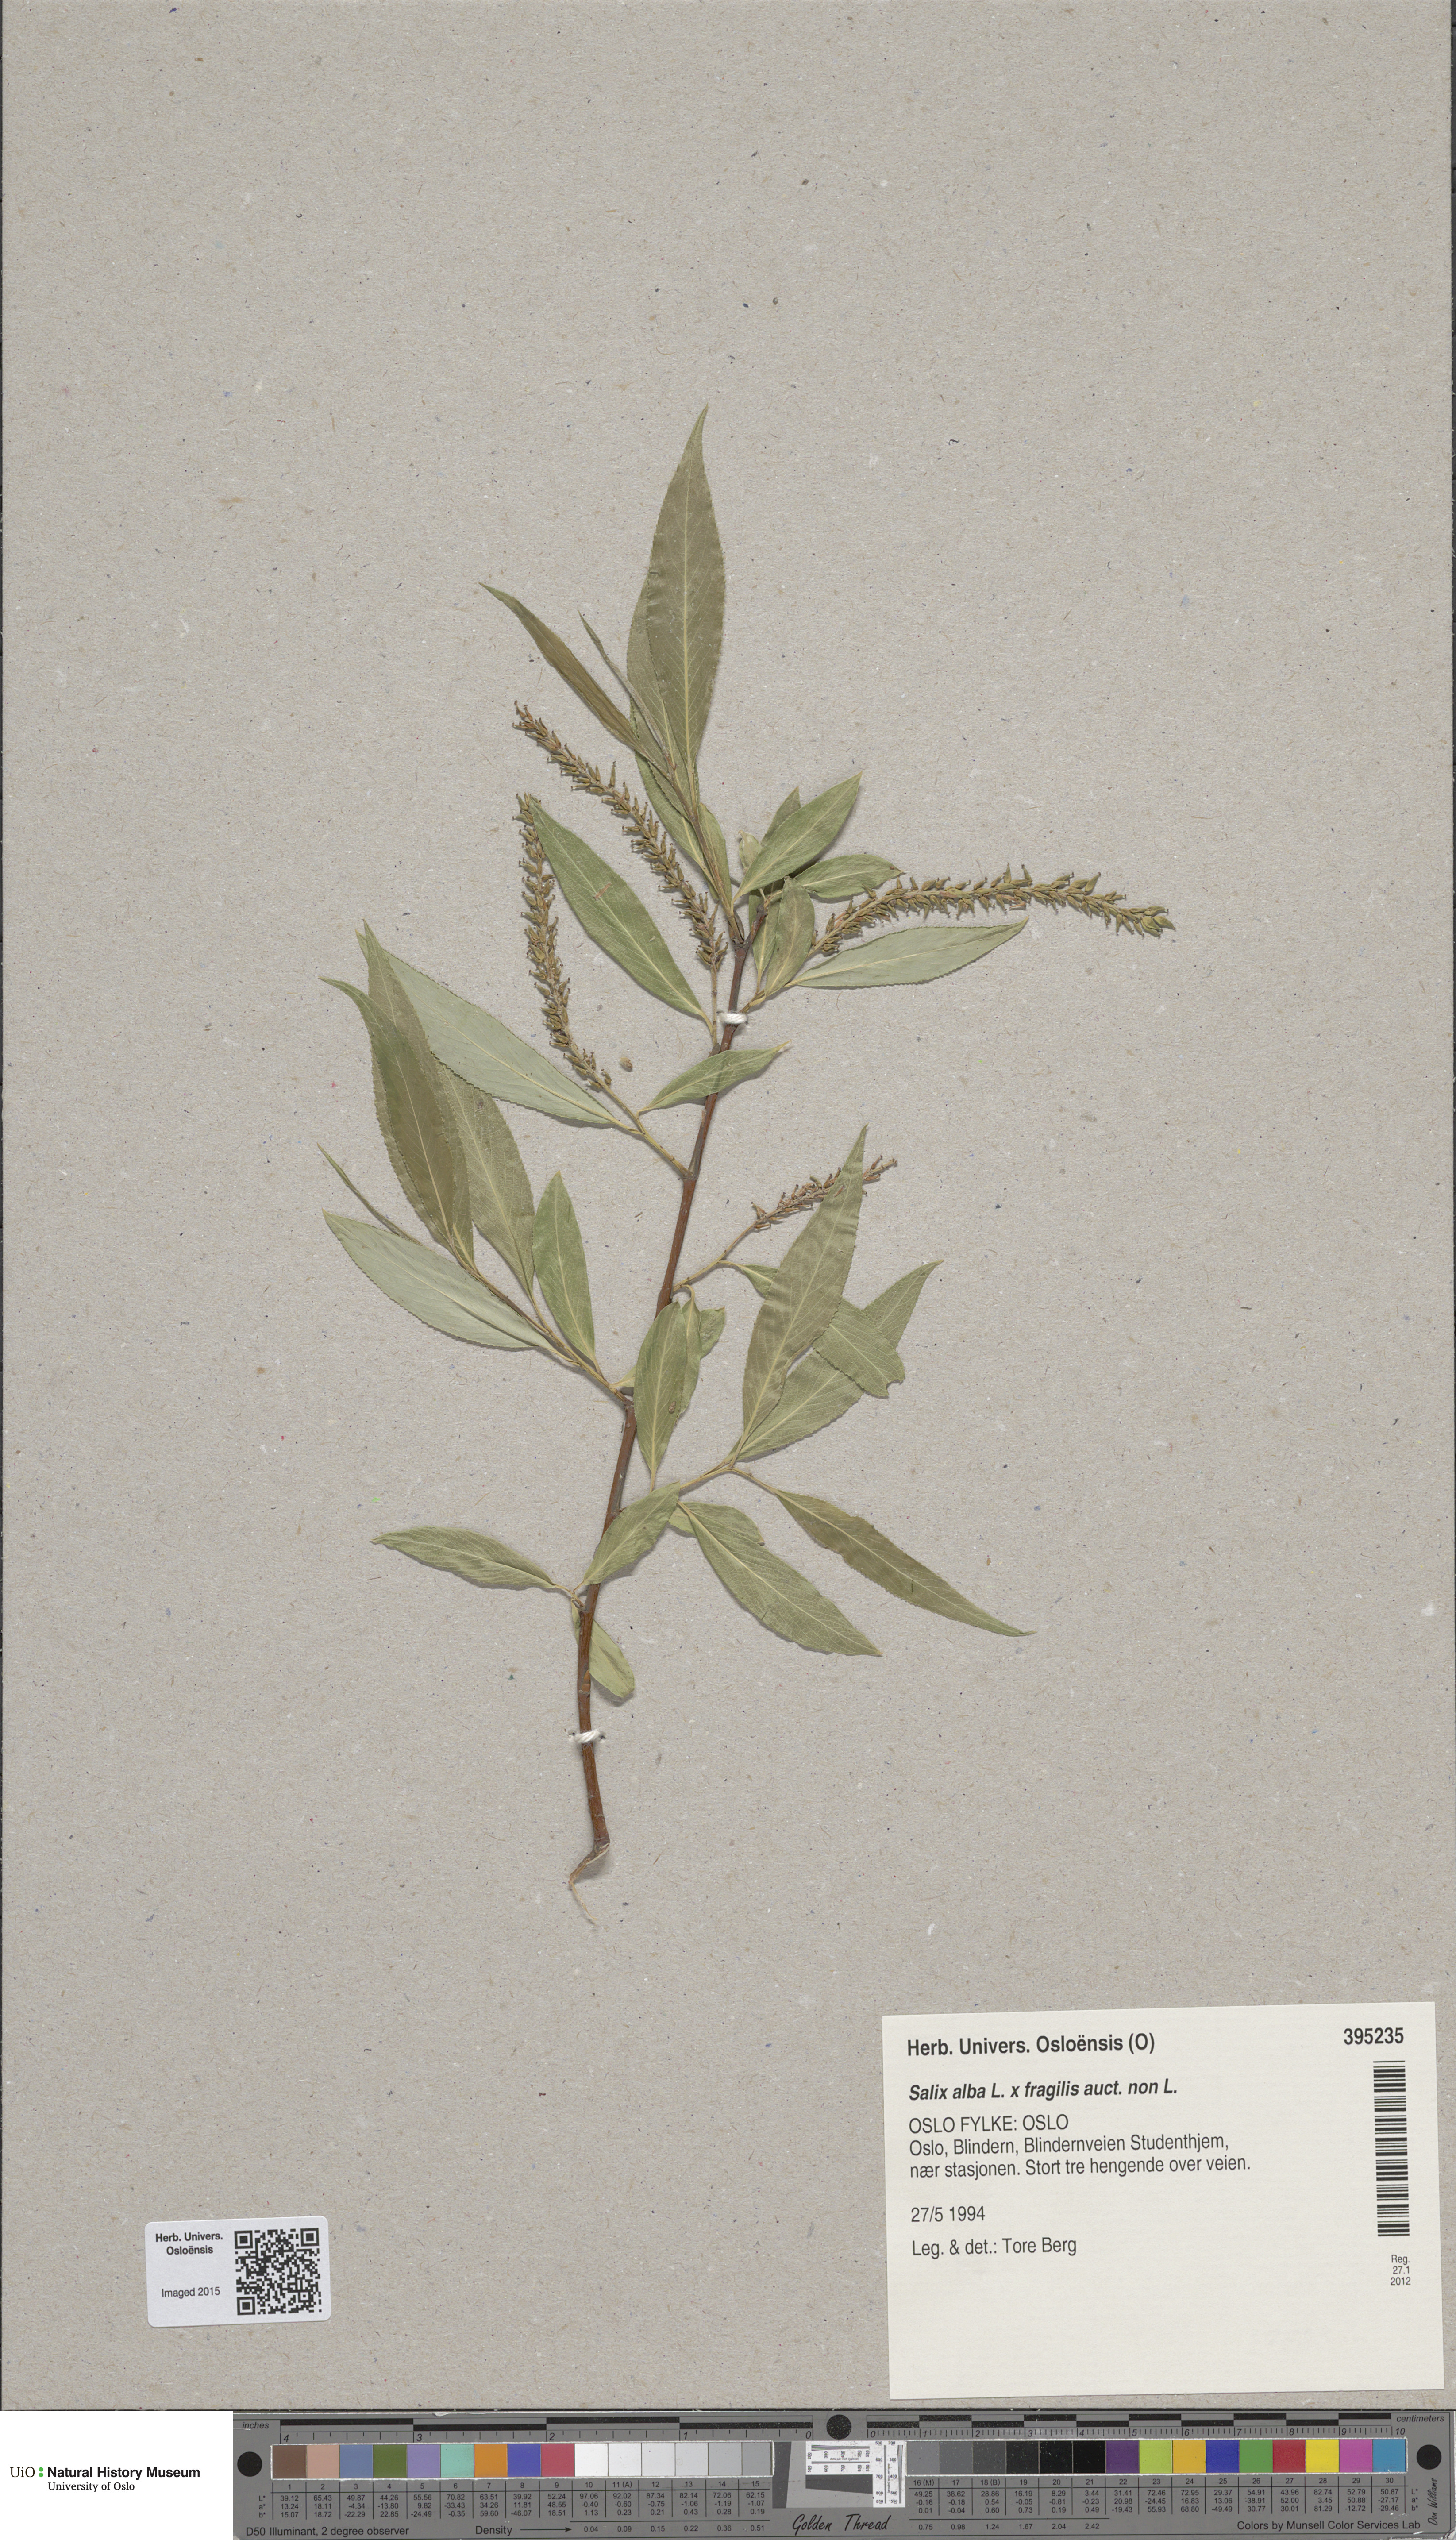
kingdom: Plantae
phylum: Tracheophyta
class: Magnoliopsida
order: Malpighiales
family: Salicaceae
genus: Salix
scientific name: Salix alba
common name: White willow
